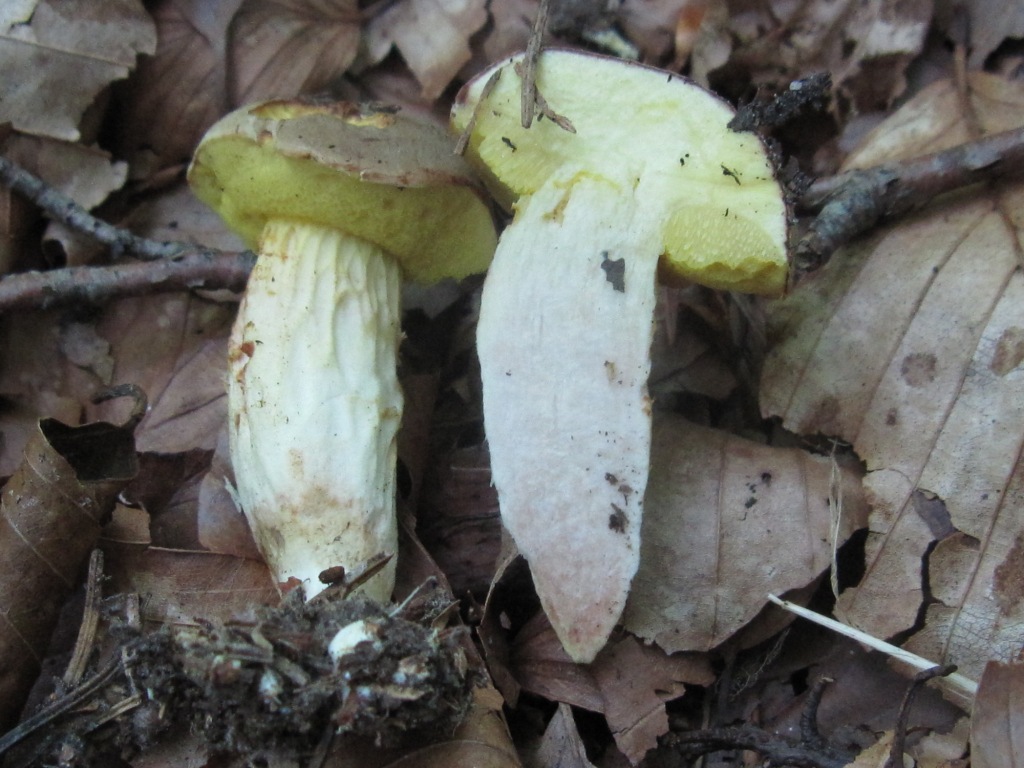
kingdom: Fungi
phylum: Basidiomycota
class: Agaricomycetes
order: Boletales
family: Boletaceae
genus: Xerocomus
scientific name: Xerocomus subtomentosus
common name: filtet rørhat
